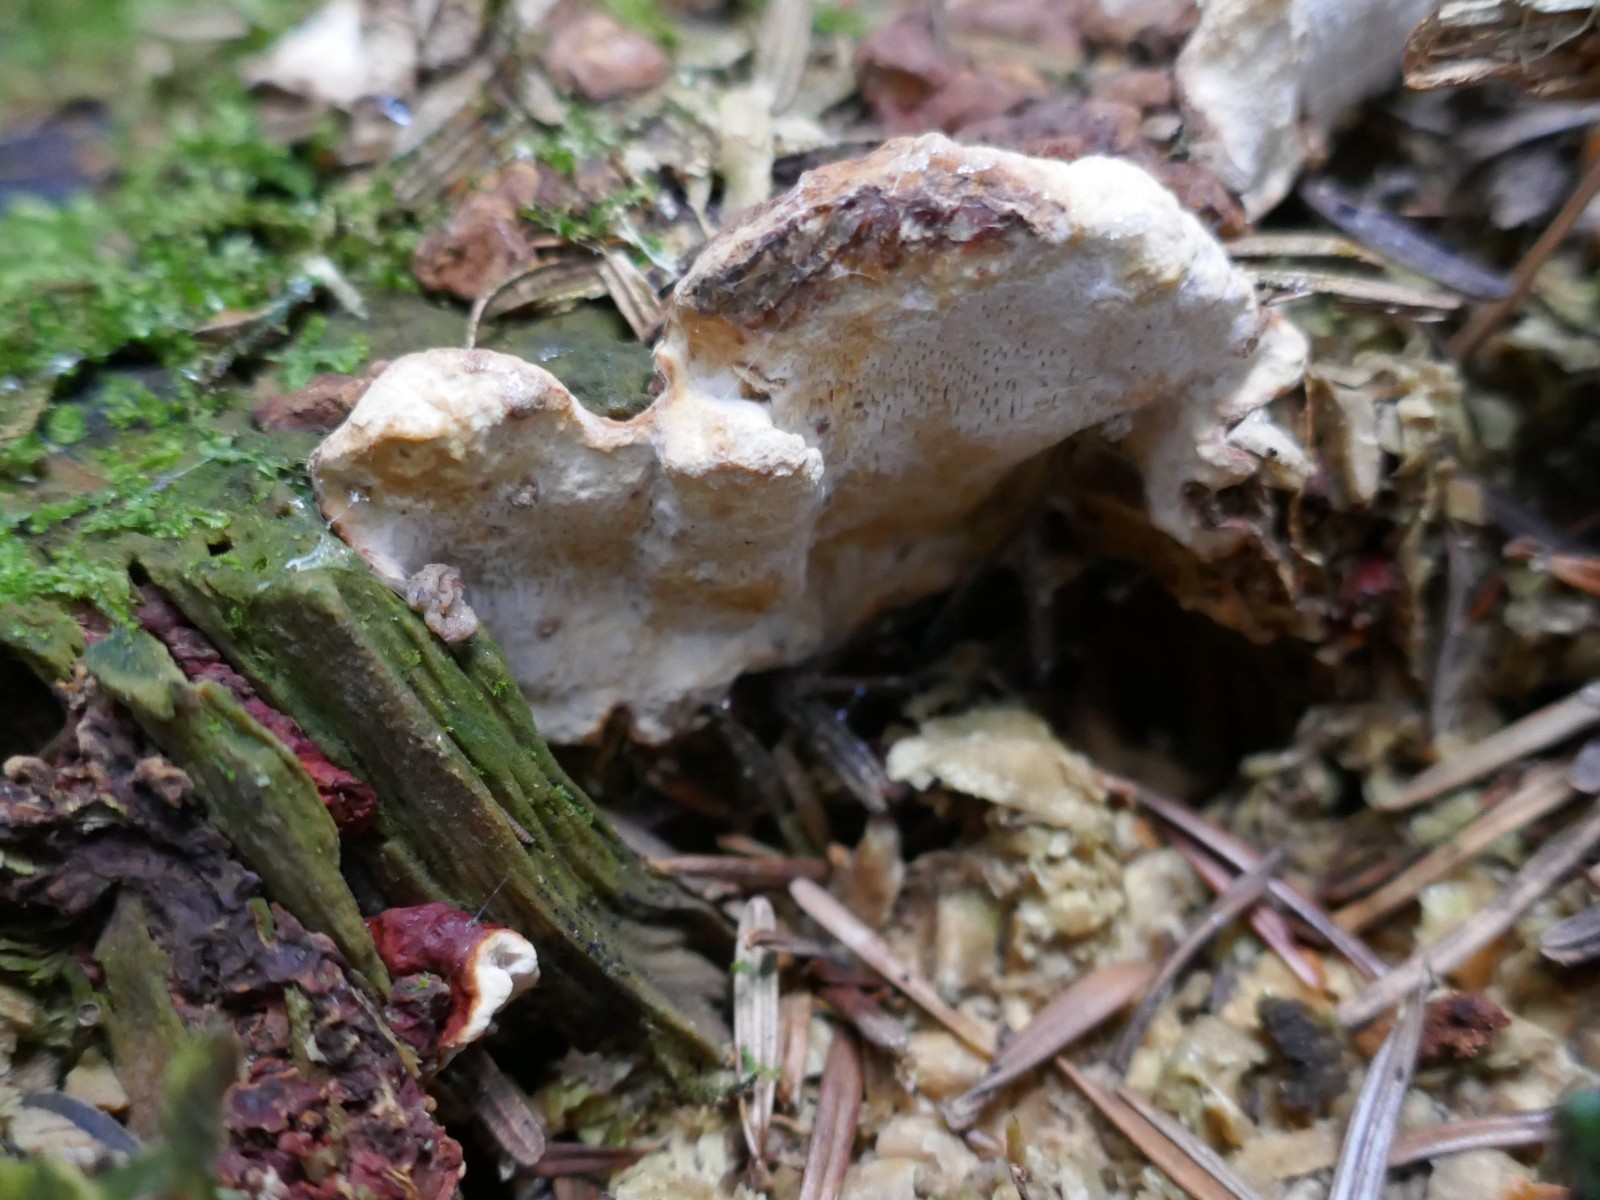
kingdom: Fungi
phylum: Basidiomycota
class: Agaricomycetes
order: Russulales
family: Bondarzewiaceae
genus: Heterobasidion
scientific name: Heterobasidion
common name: rodfordærver
